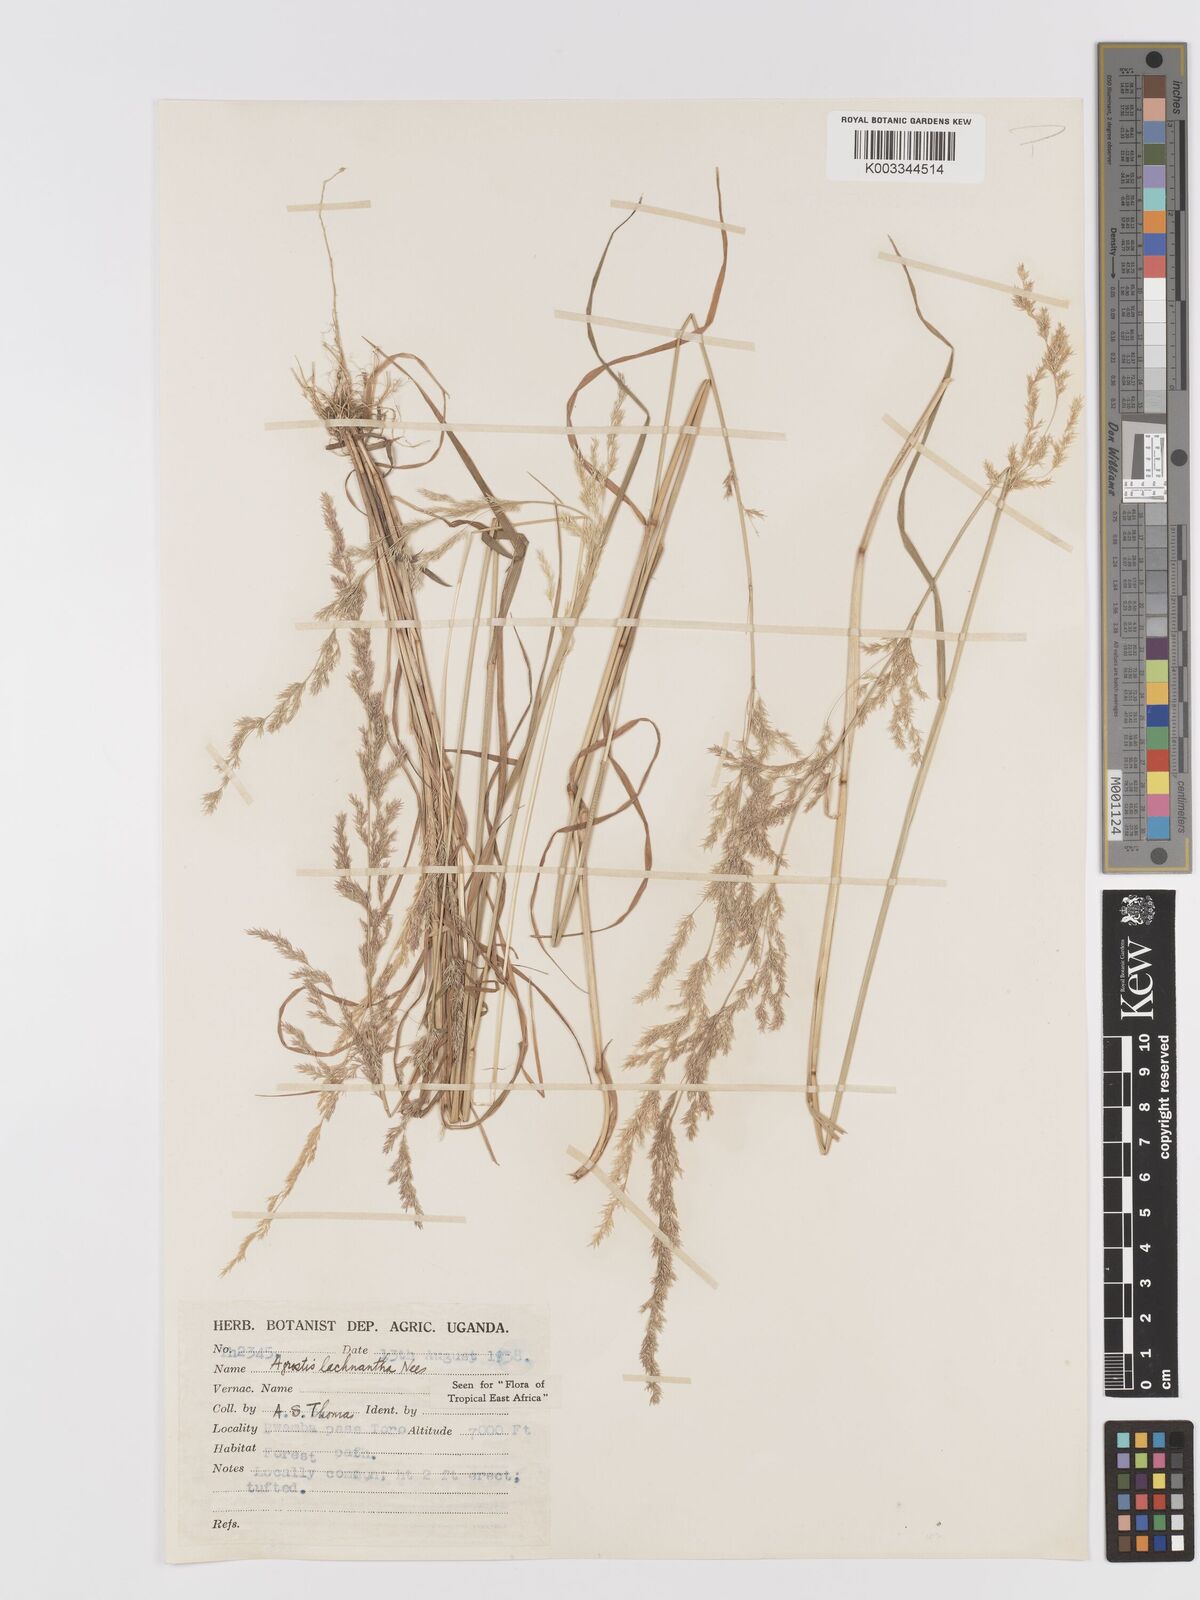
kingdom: Plantae
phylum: Tracheophyta
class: Liliopsida
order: Poales
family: Poaceae
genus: Lachnagrostis
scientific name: Lachnagrostis lachnantha
